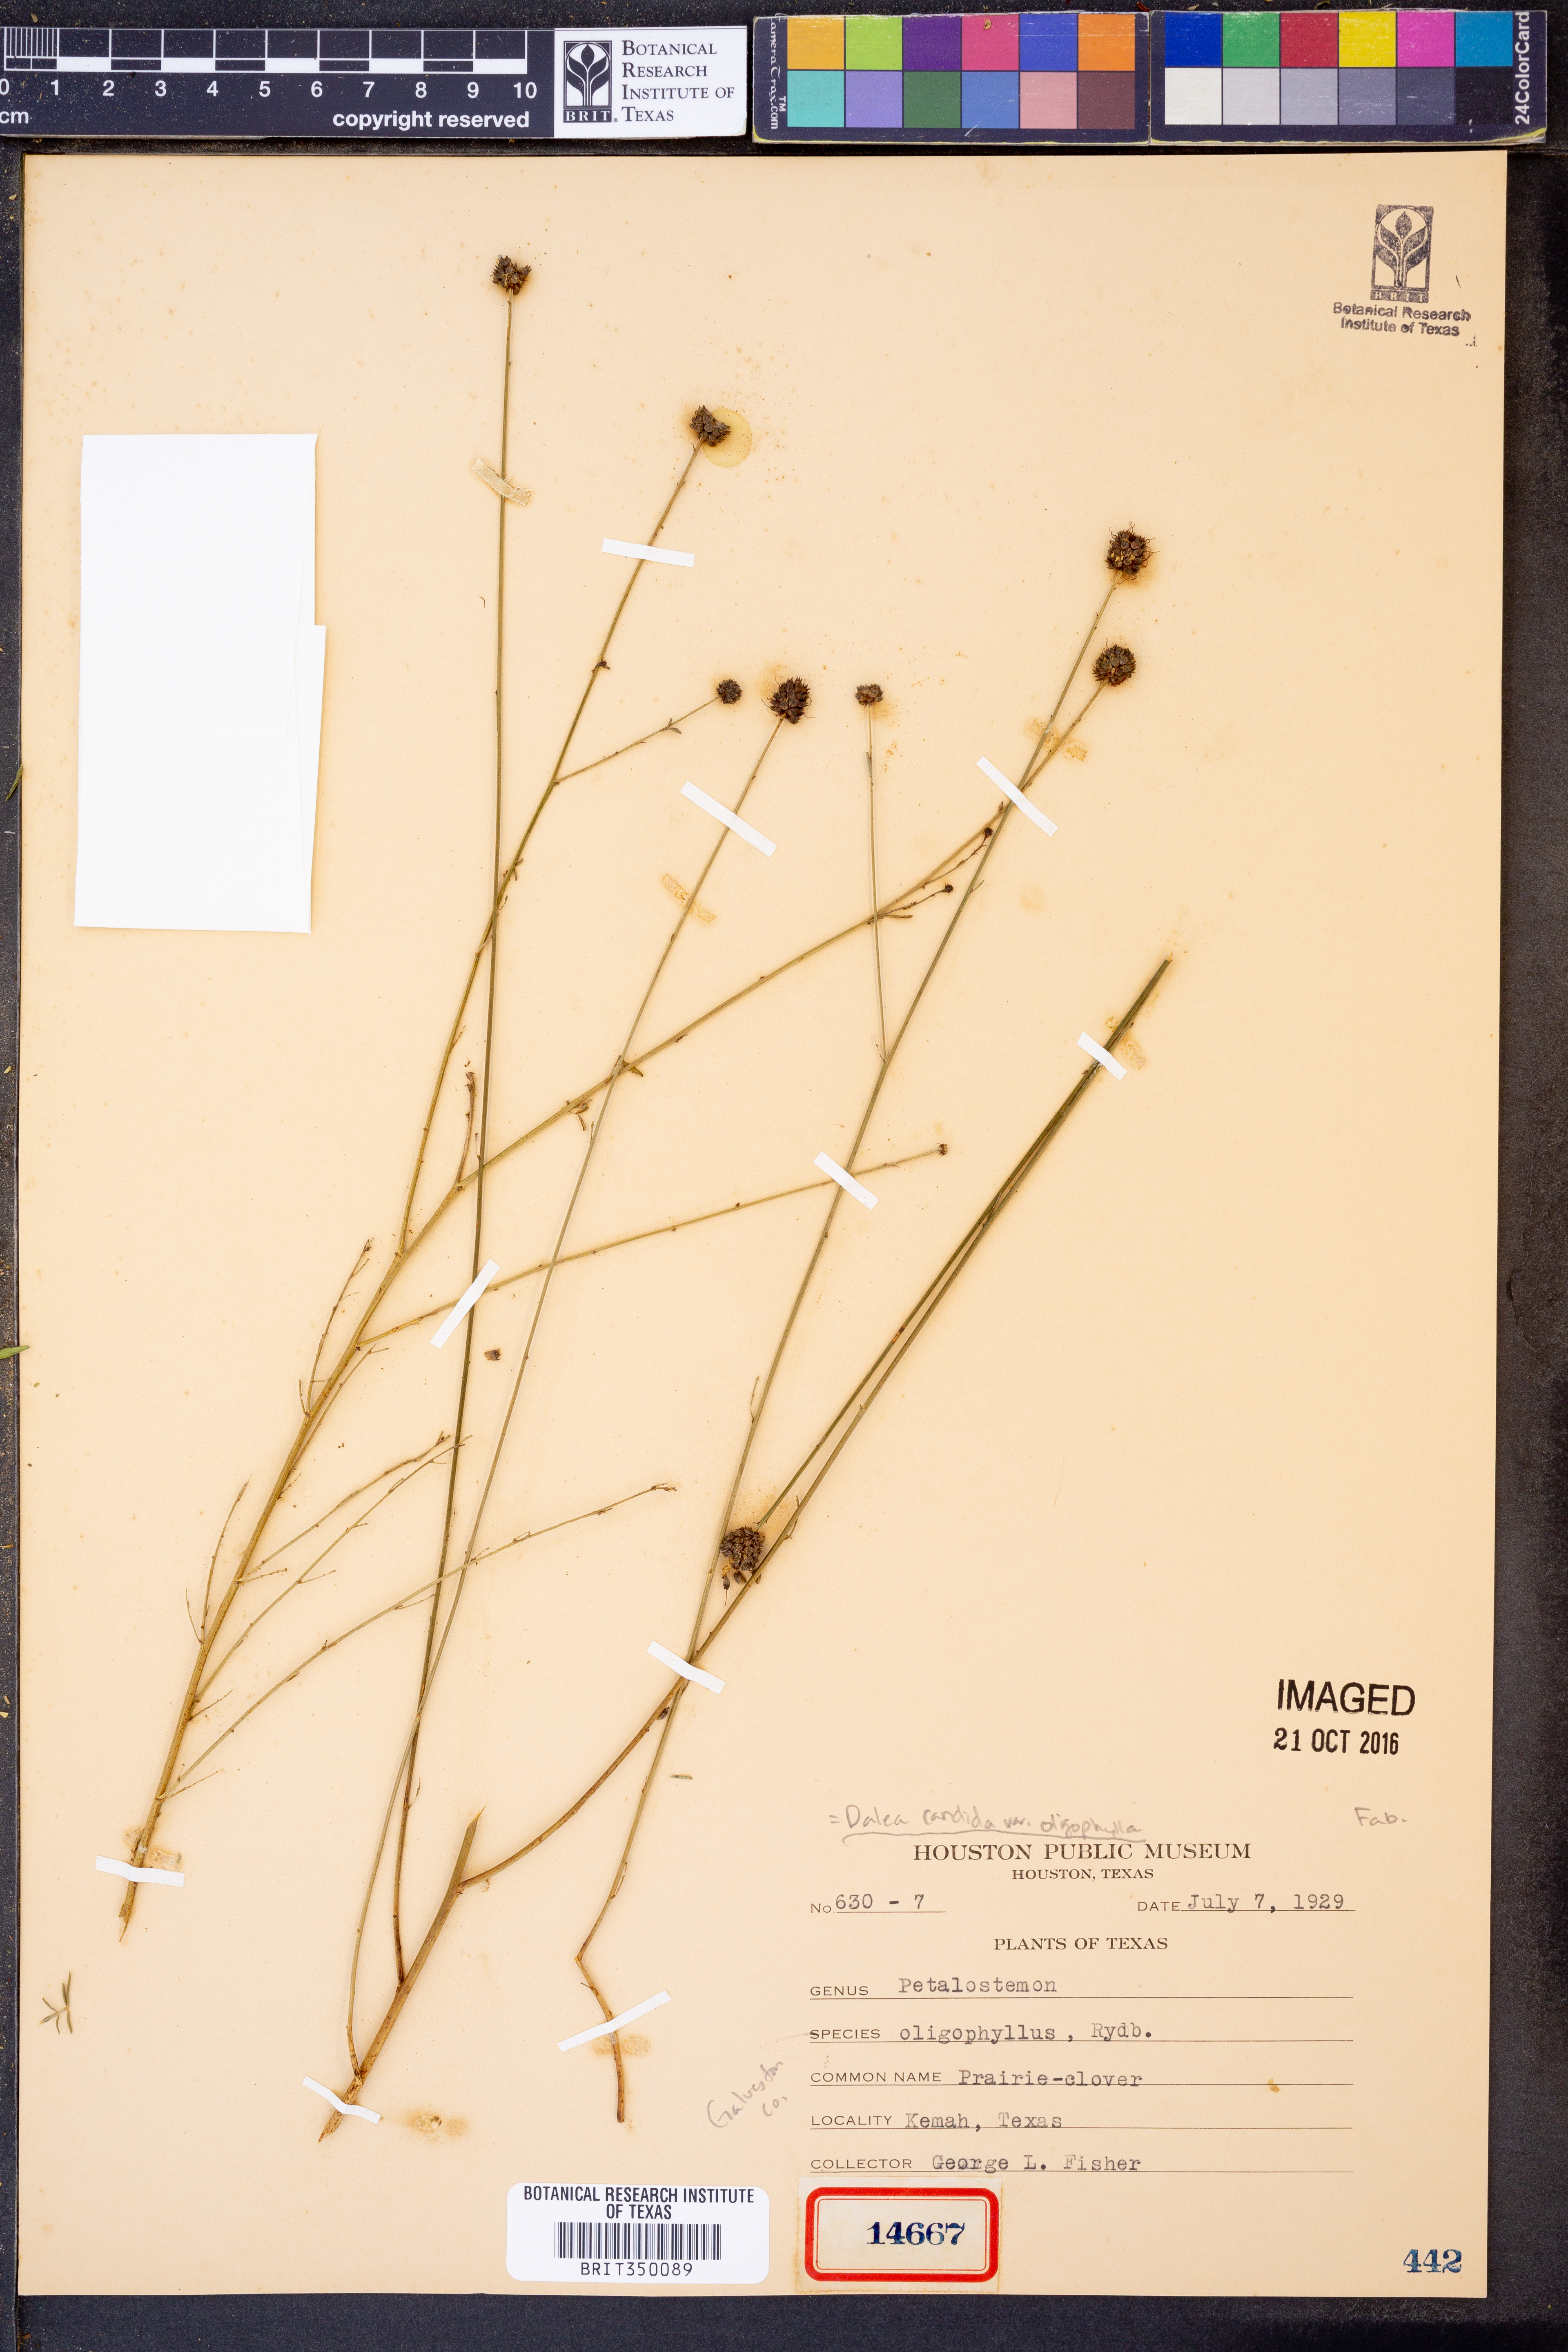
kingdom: Plantae
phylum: Tracheophyta
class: Magnoliopsida
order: Fabales
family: Fabaceae
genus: Dalea
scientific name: Dalea candida
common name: White prairie-clover
